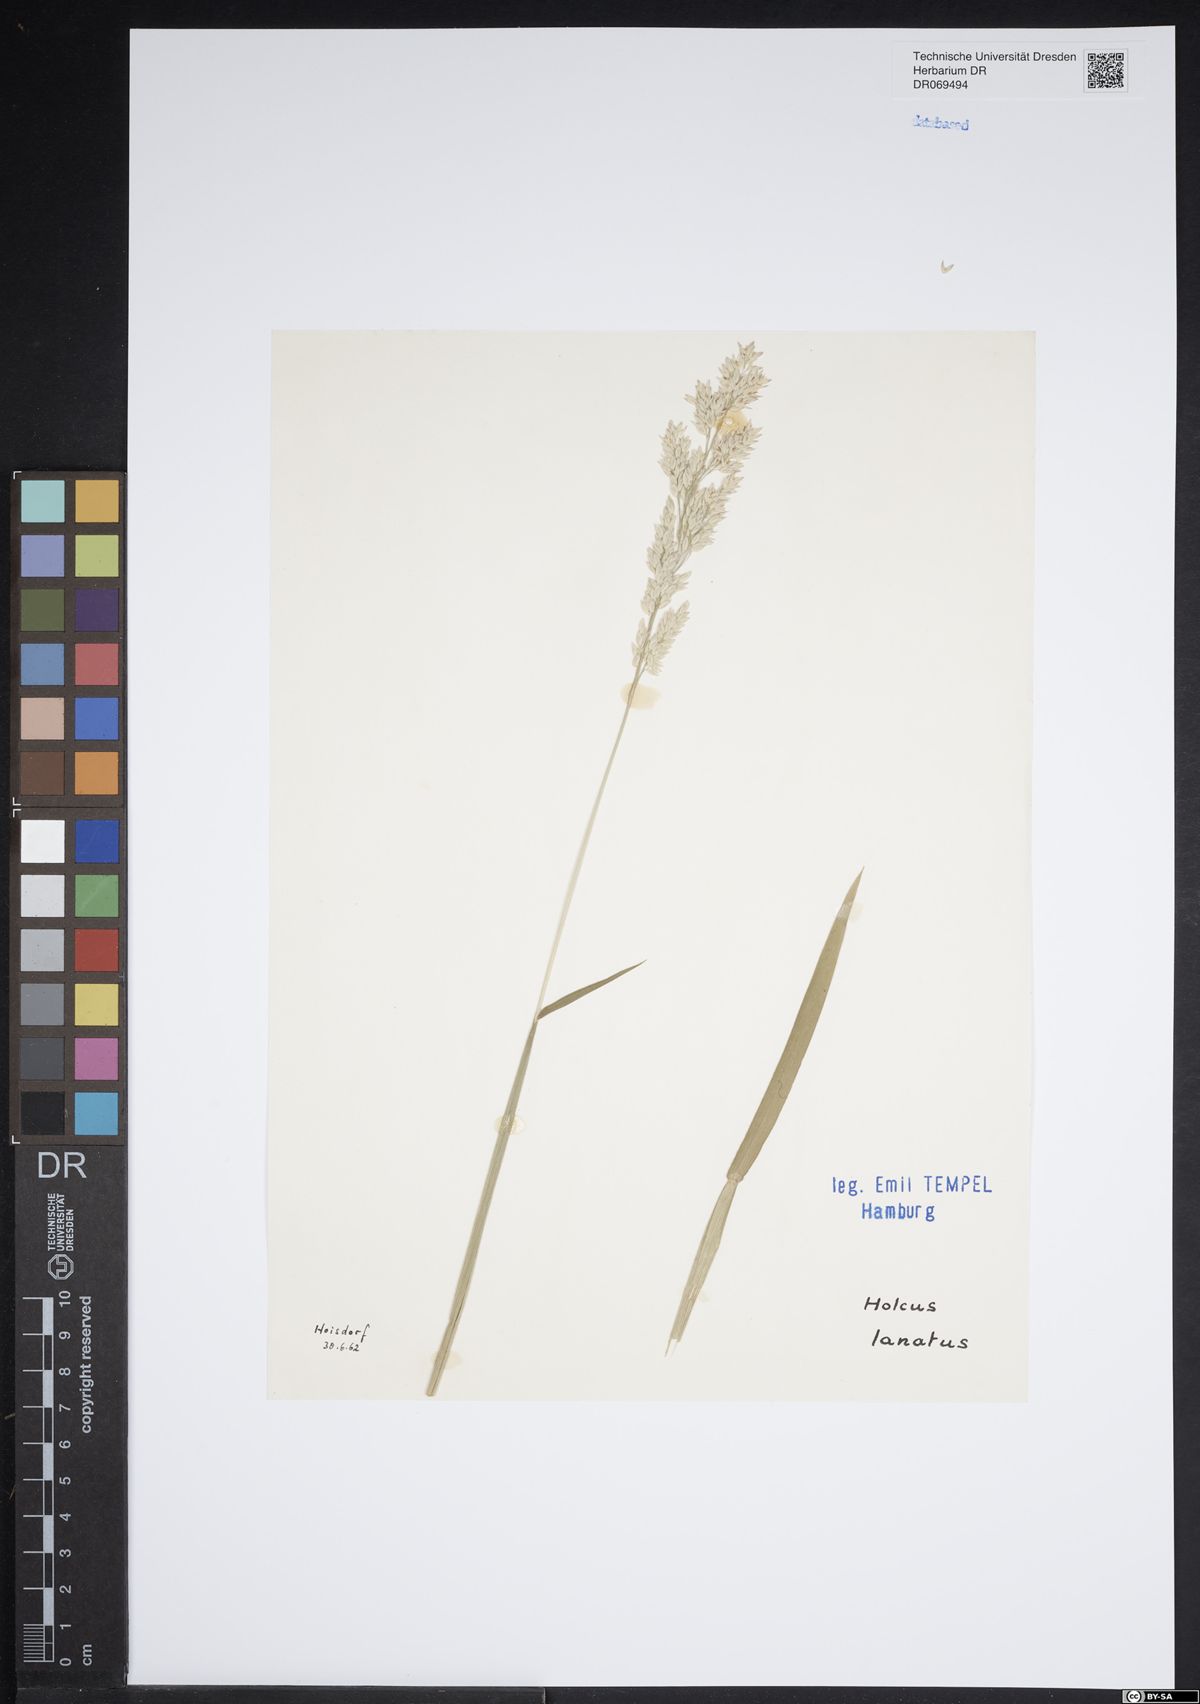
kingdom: Plantae
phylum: Tracheophyta
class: Liliopsida
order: Poales
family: Poaceae
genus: Holcus
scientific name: Holcus lanatus
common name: Yorkshire-fog
